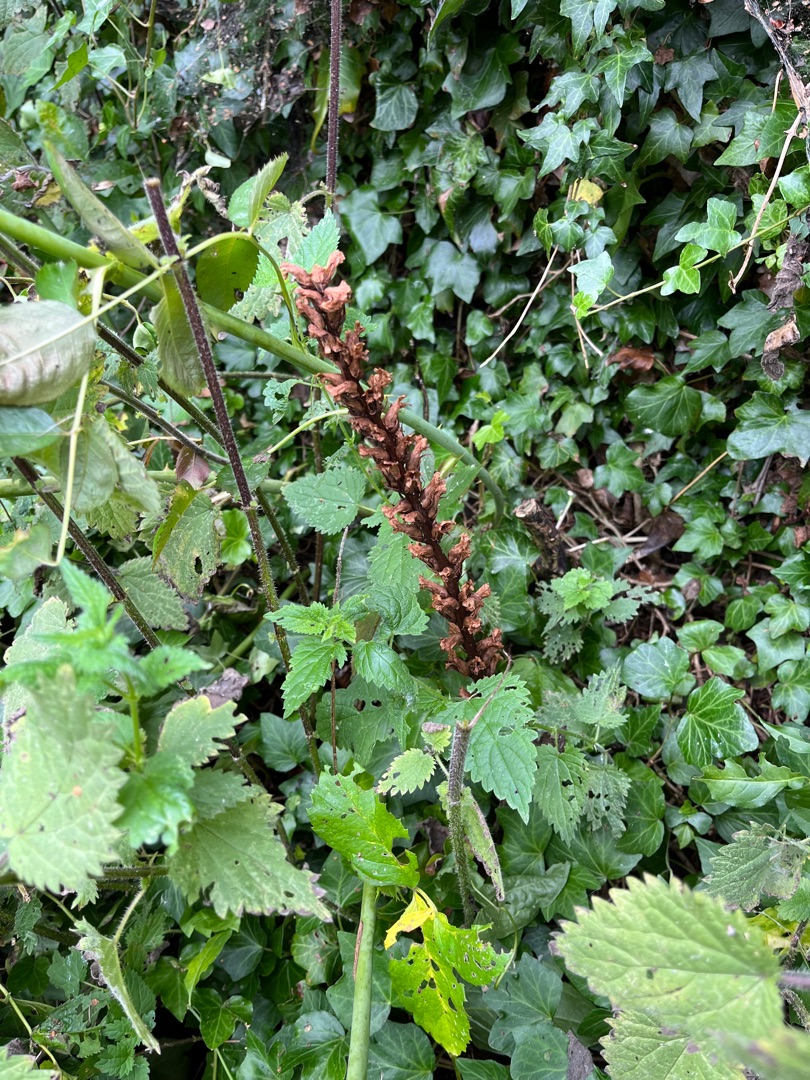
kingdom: Plantae
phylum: Tracheophyta
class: Magnoliopsida
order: Lamiales
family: Orobanchaceae
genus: Orobanche
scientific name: Orobanche hederae
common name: Vedbend-gyvelkvæler
